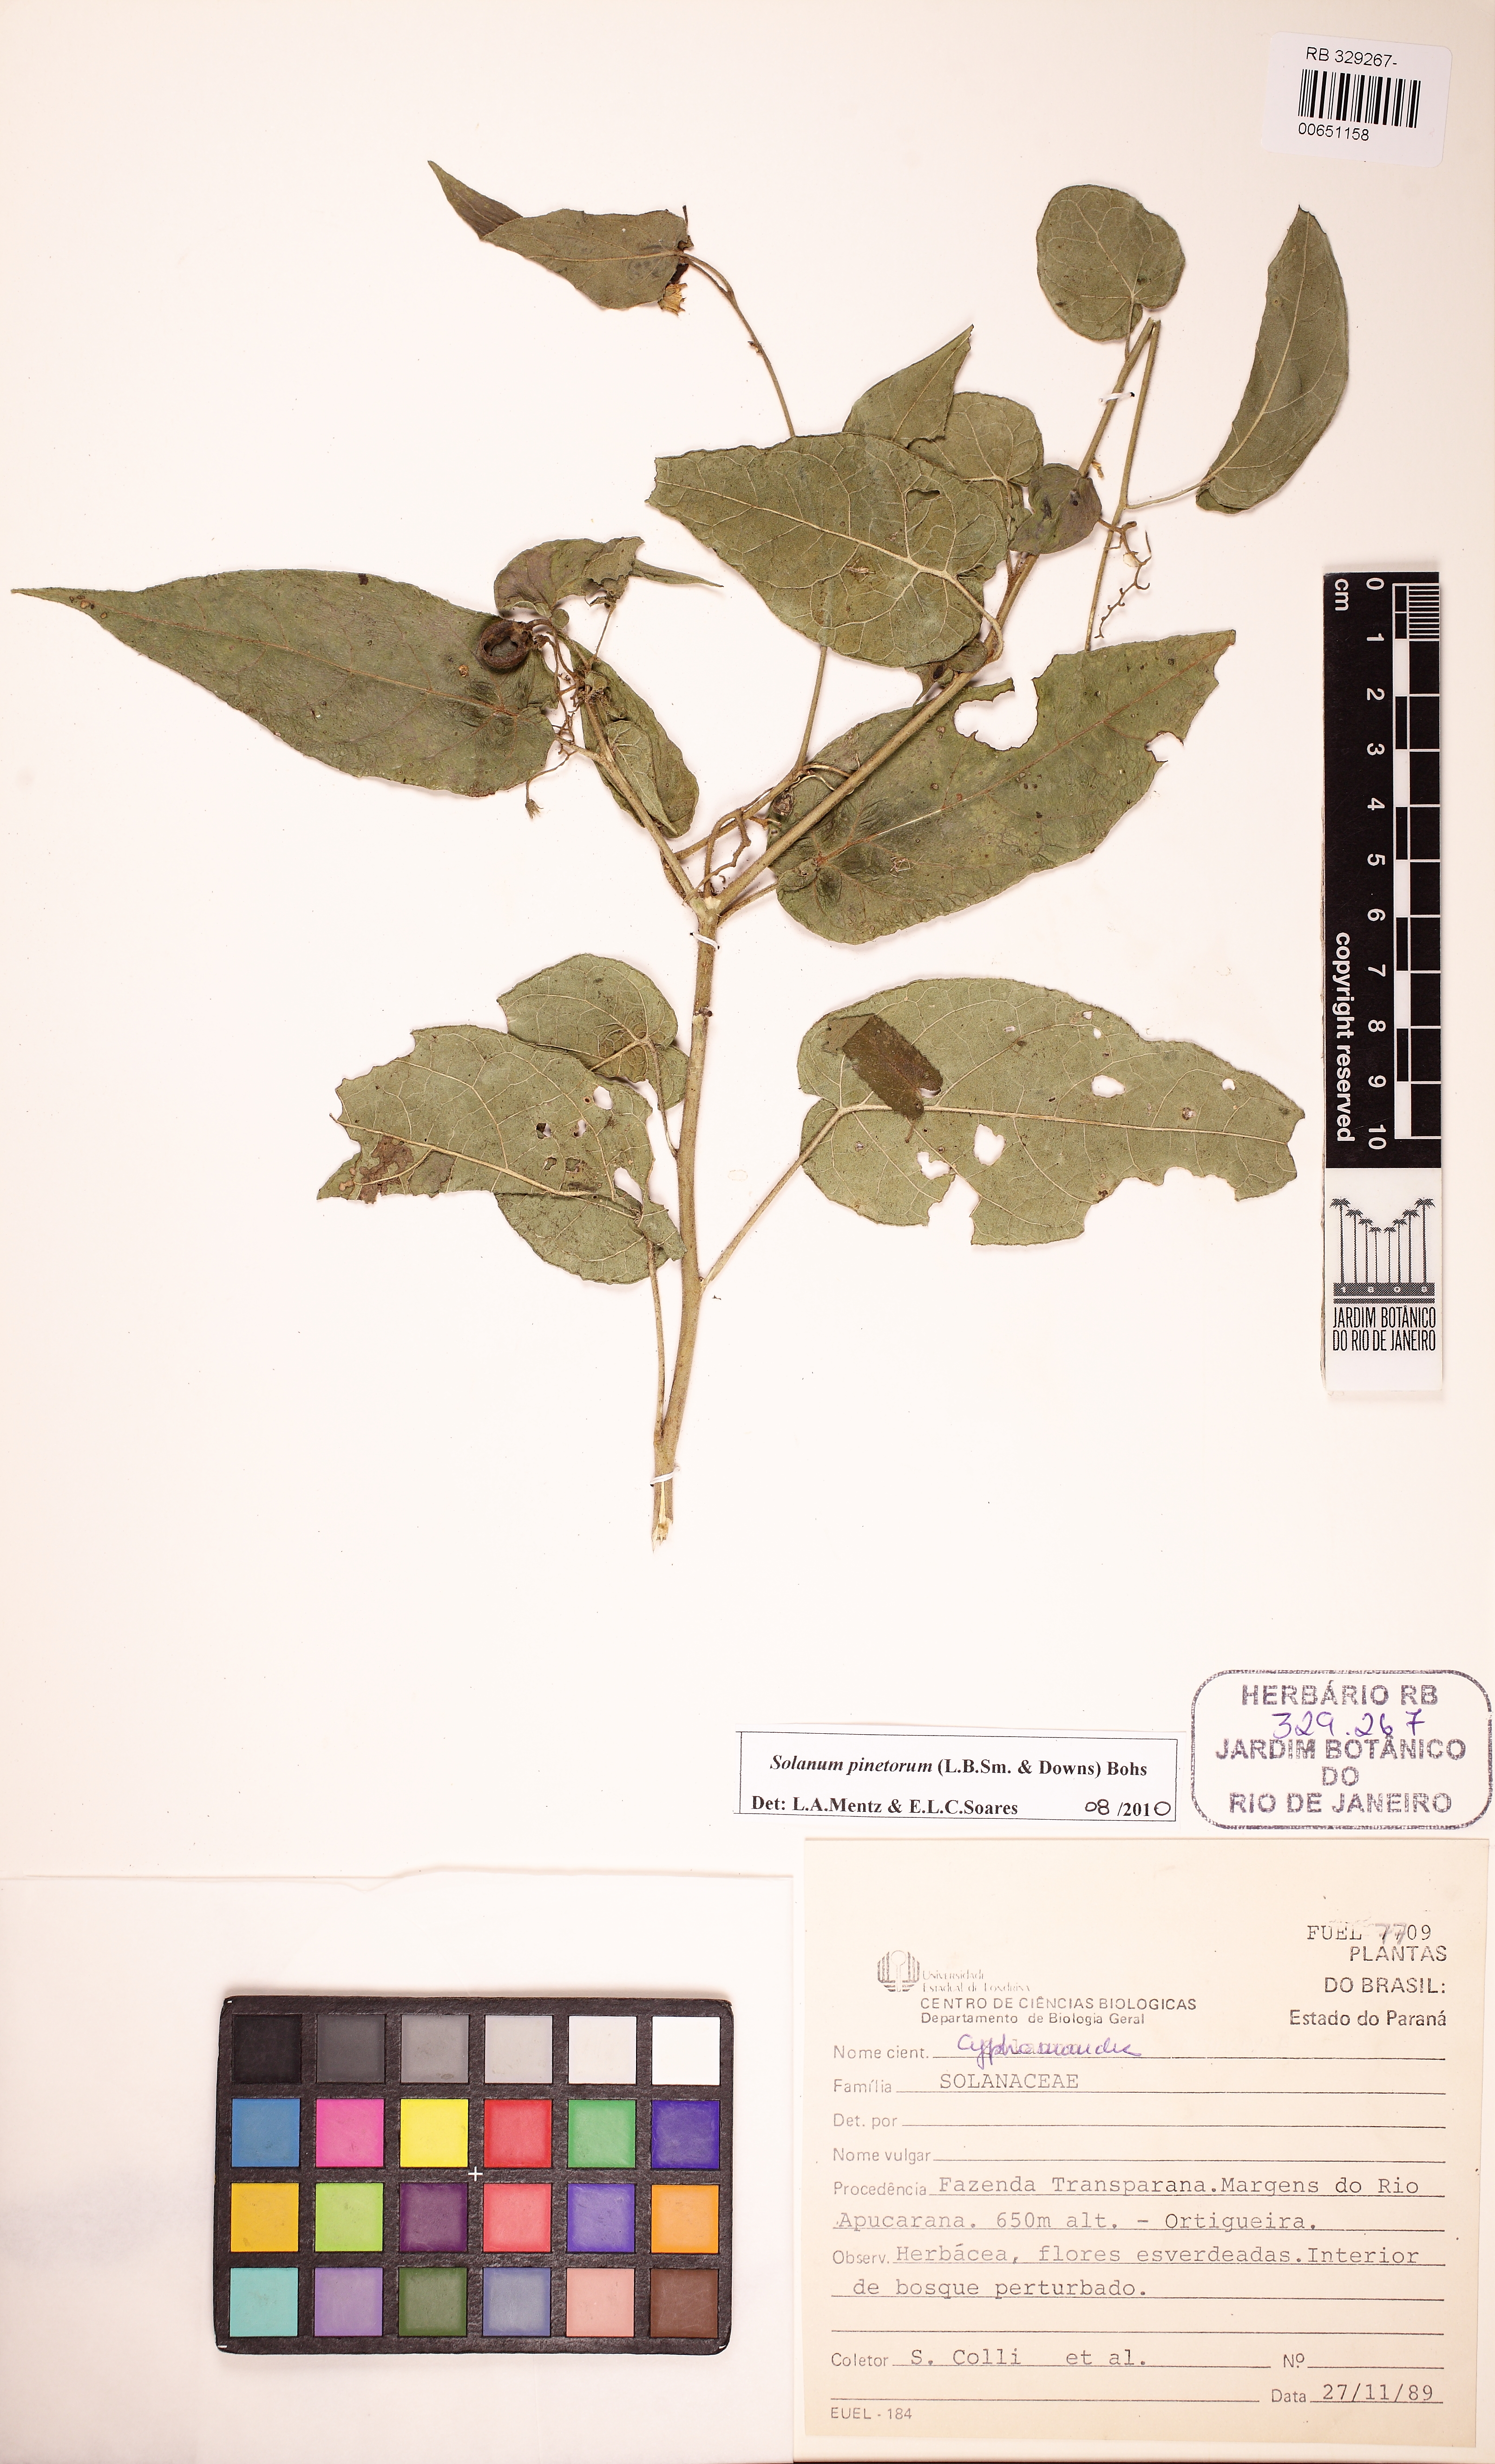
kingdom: Plantae
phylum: Tracheophyta
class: Magnoliopsida
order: Solanales
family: Solanaceae
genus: Solanum
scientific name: Solanum pinetorum
